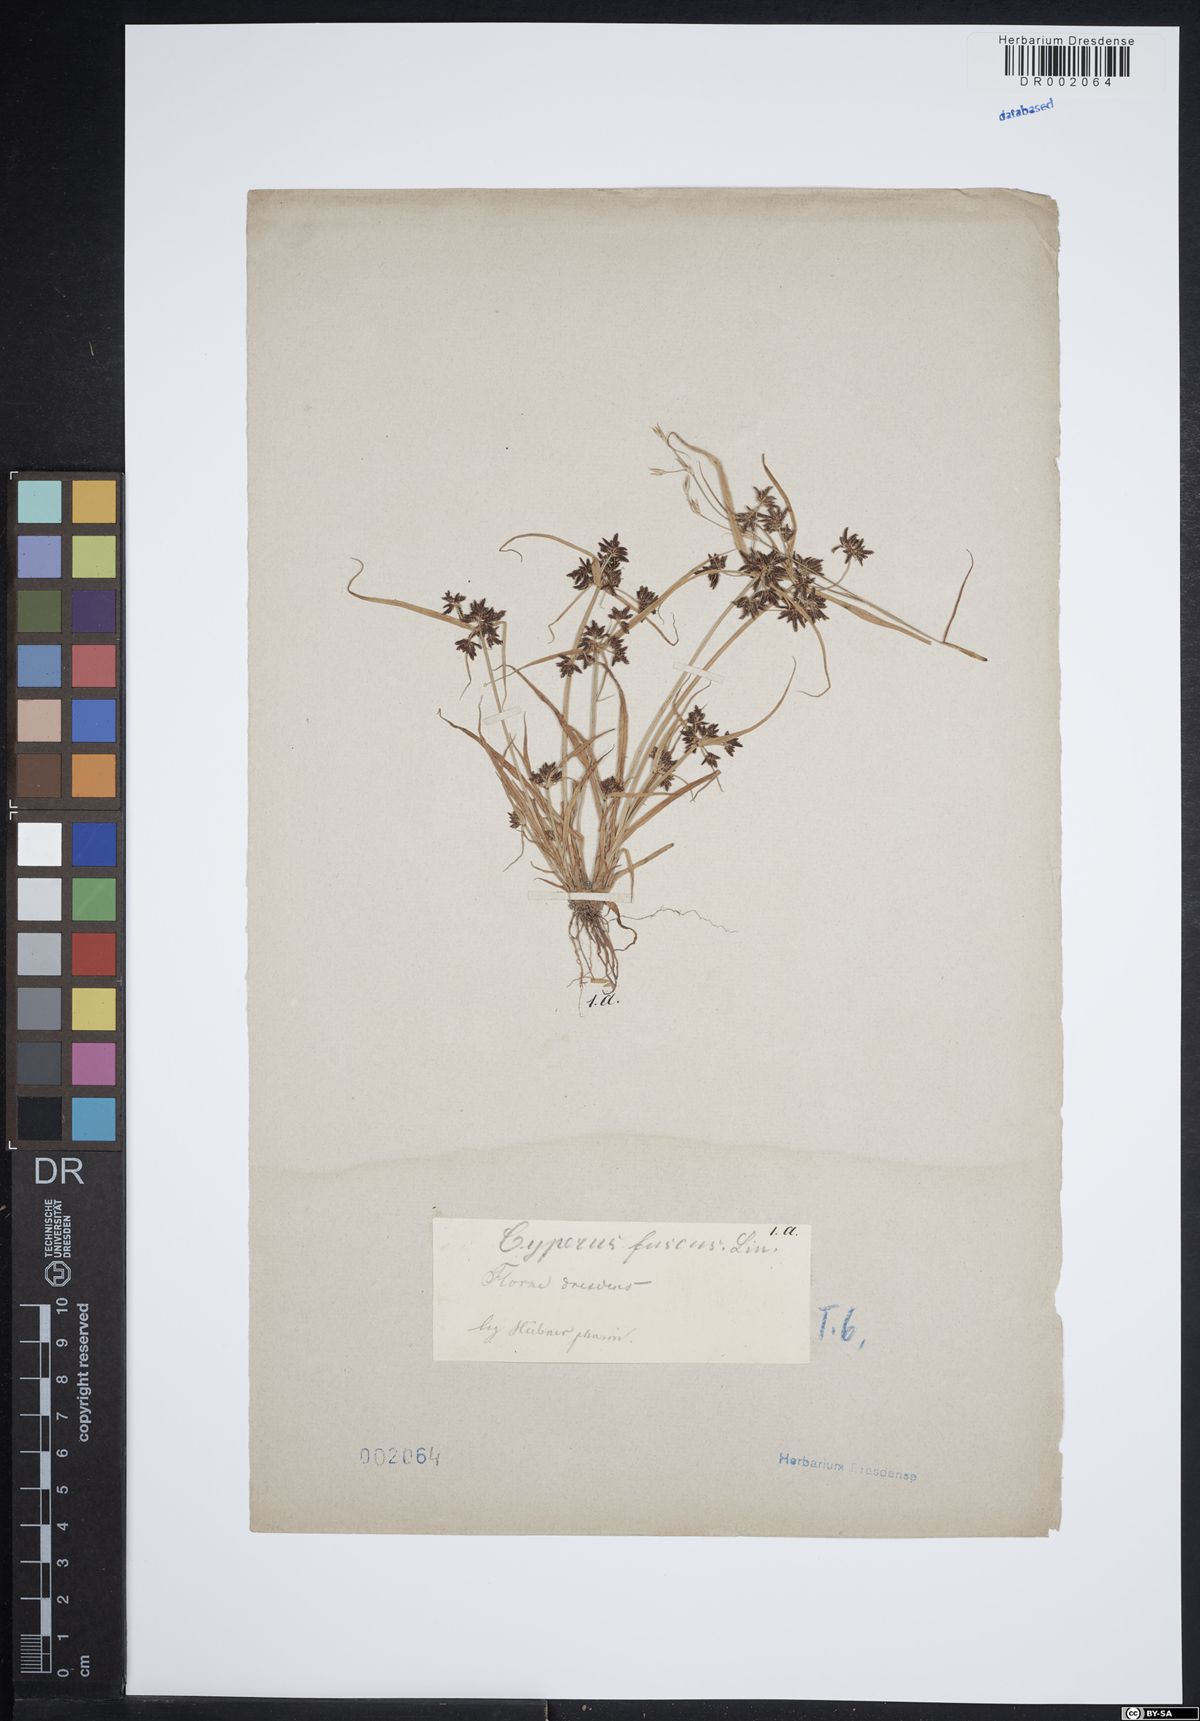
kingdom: Plantae
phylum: Tracheophyta
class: Liliopsida
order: Poales
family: Cyperaceae
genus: Cyperus
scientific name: Cyperus fuscus
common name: Brown galingale
